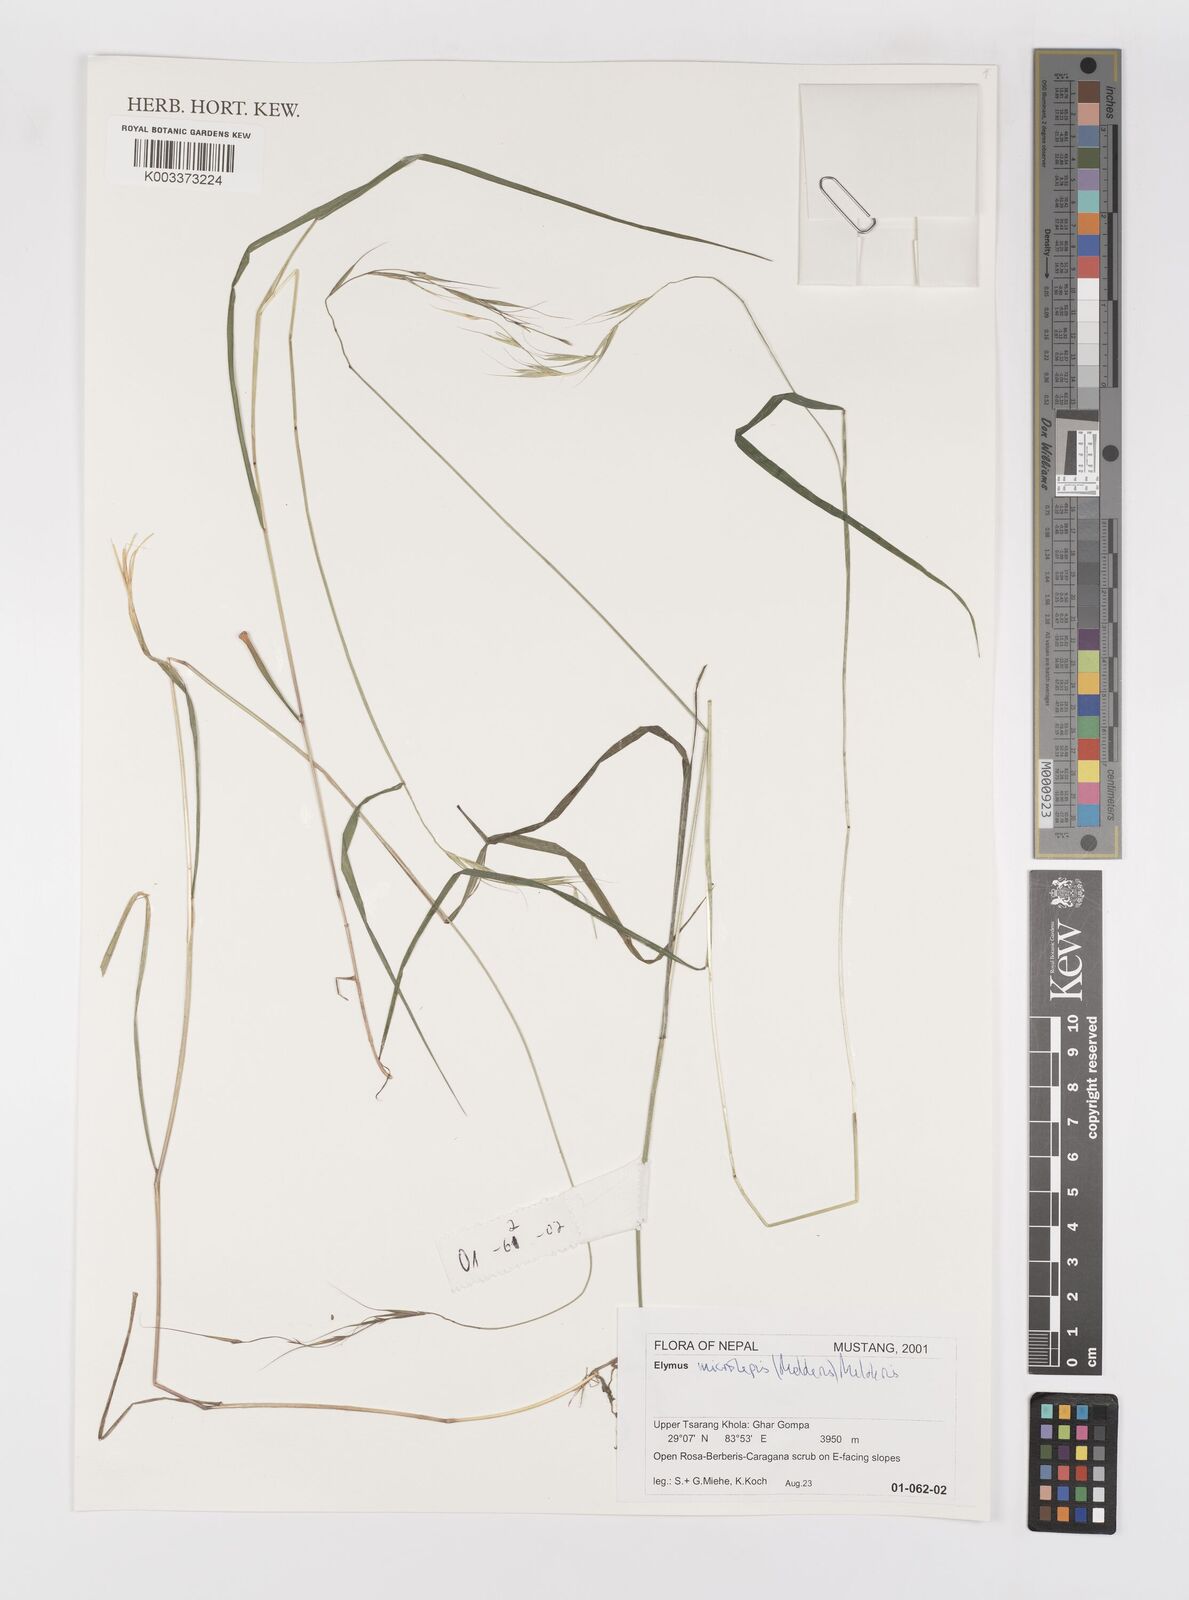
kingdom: Plantae
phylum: Tracheophyta
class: Liliopsida
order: Poales
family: Poaceae
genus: Elymus
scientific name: Elymus antiquus
